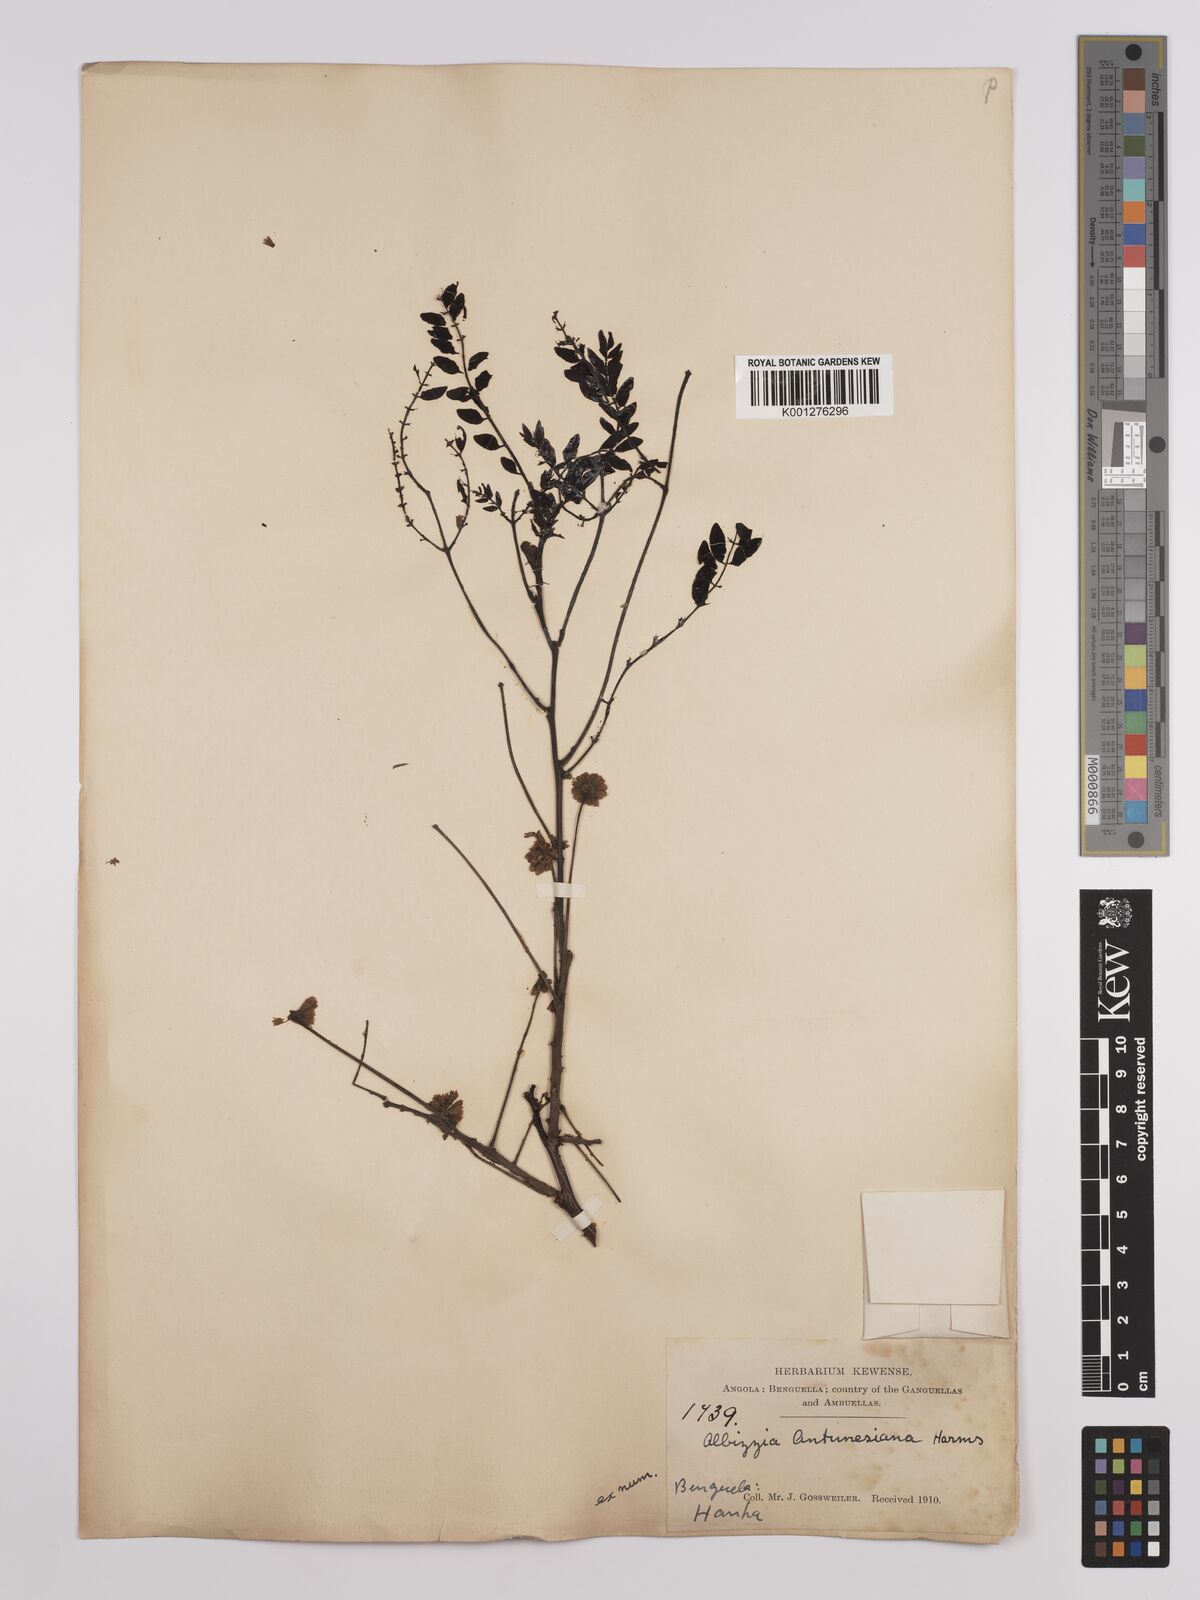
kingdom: Plantae
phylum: Tracheophyta
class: Magnoliopsida
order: Fabales
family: Fabaceae
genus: Albizia
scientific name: Albizia antunesiana
